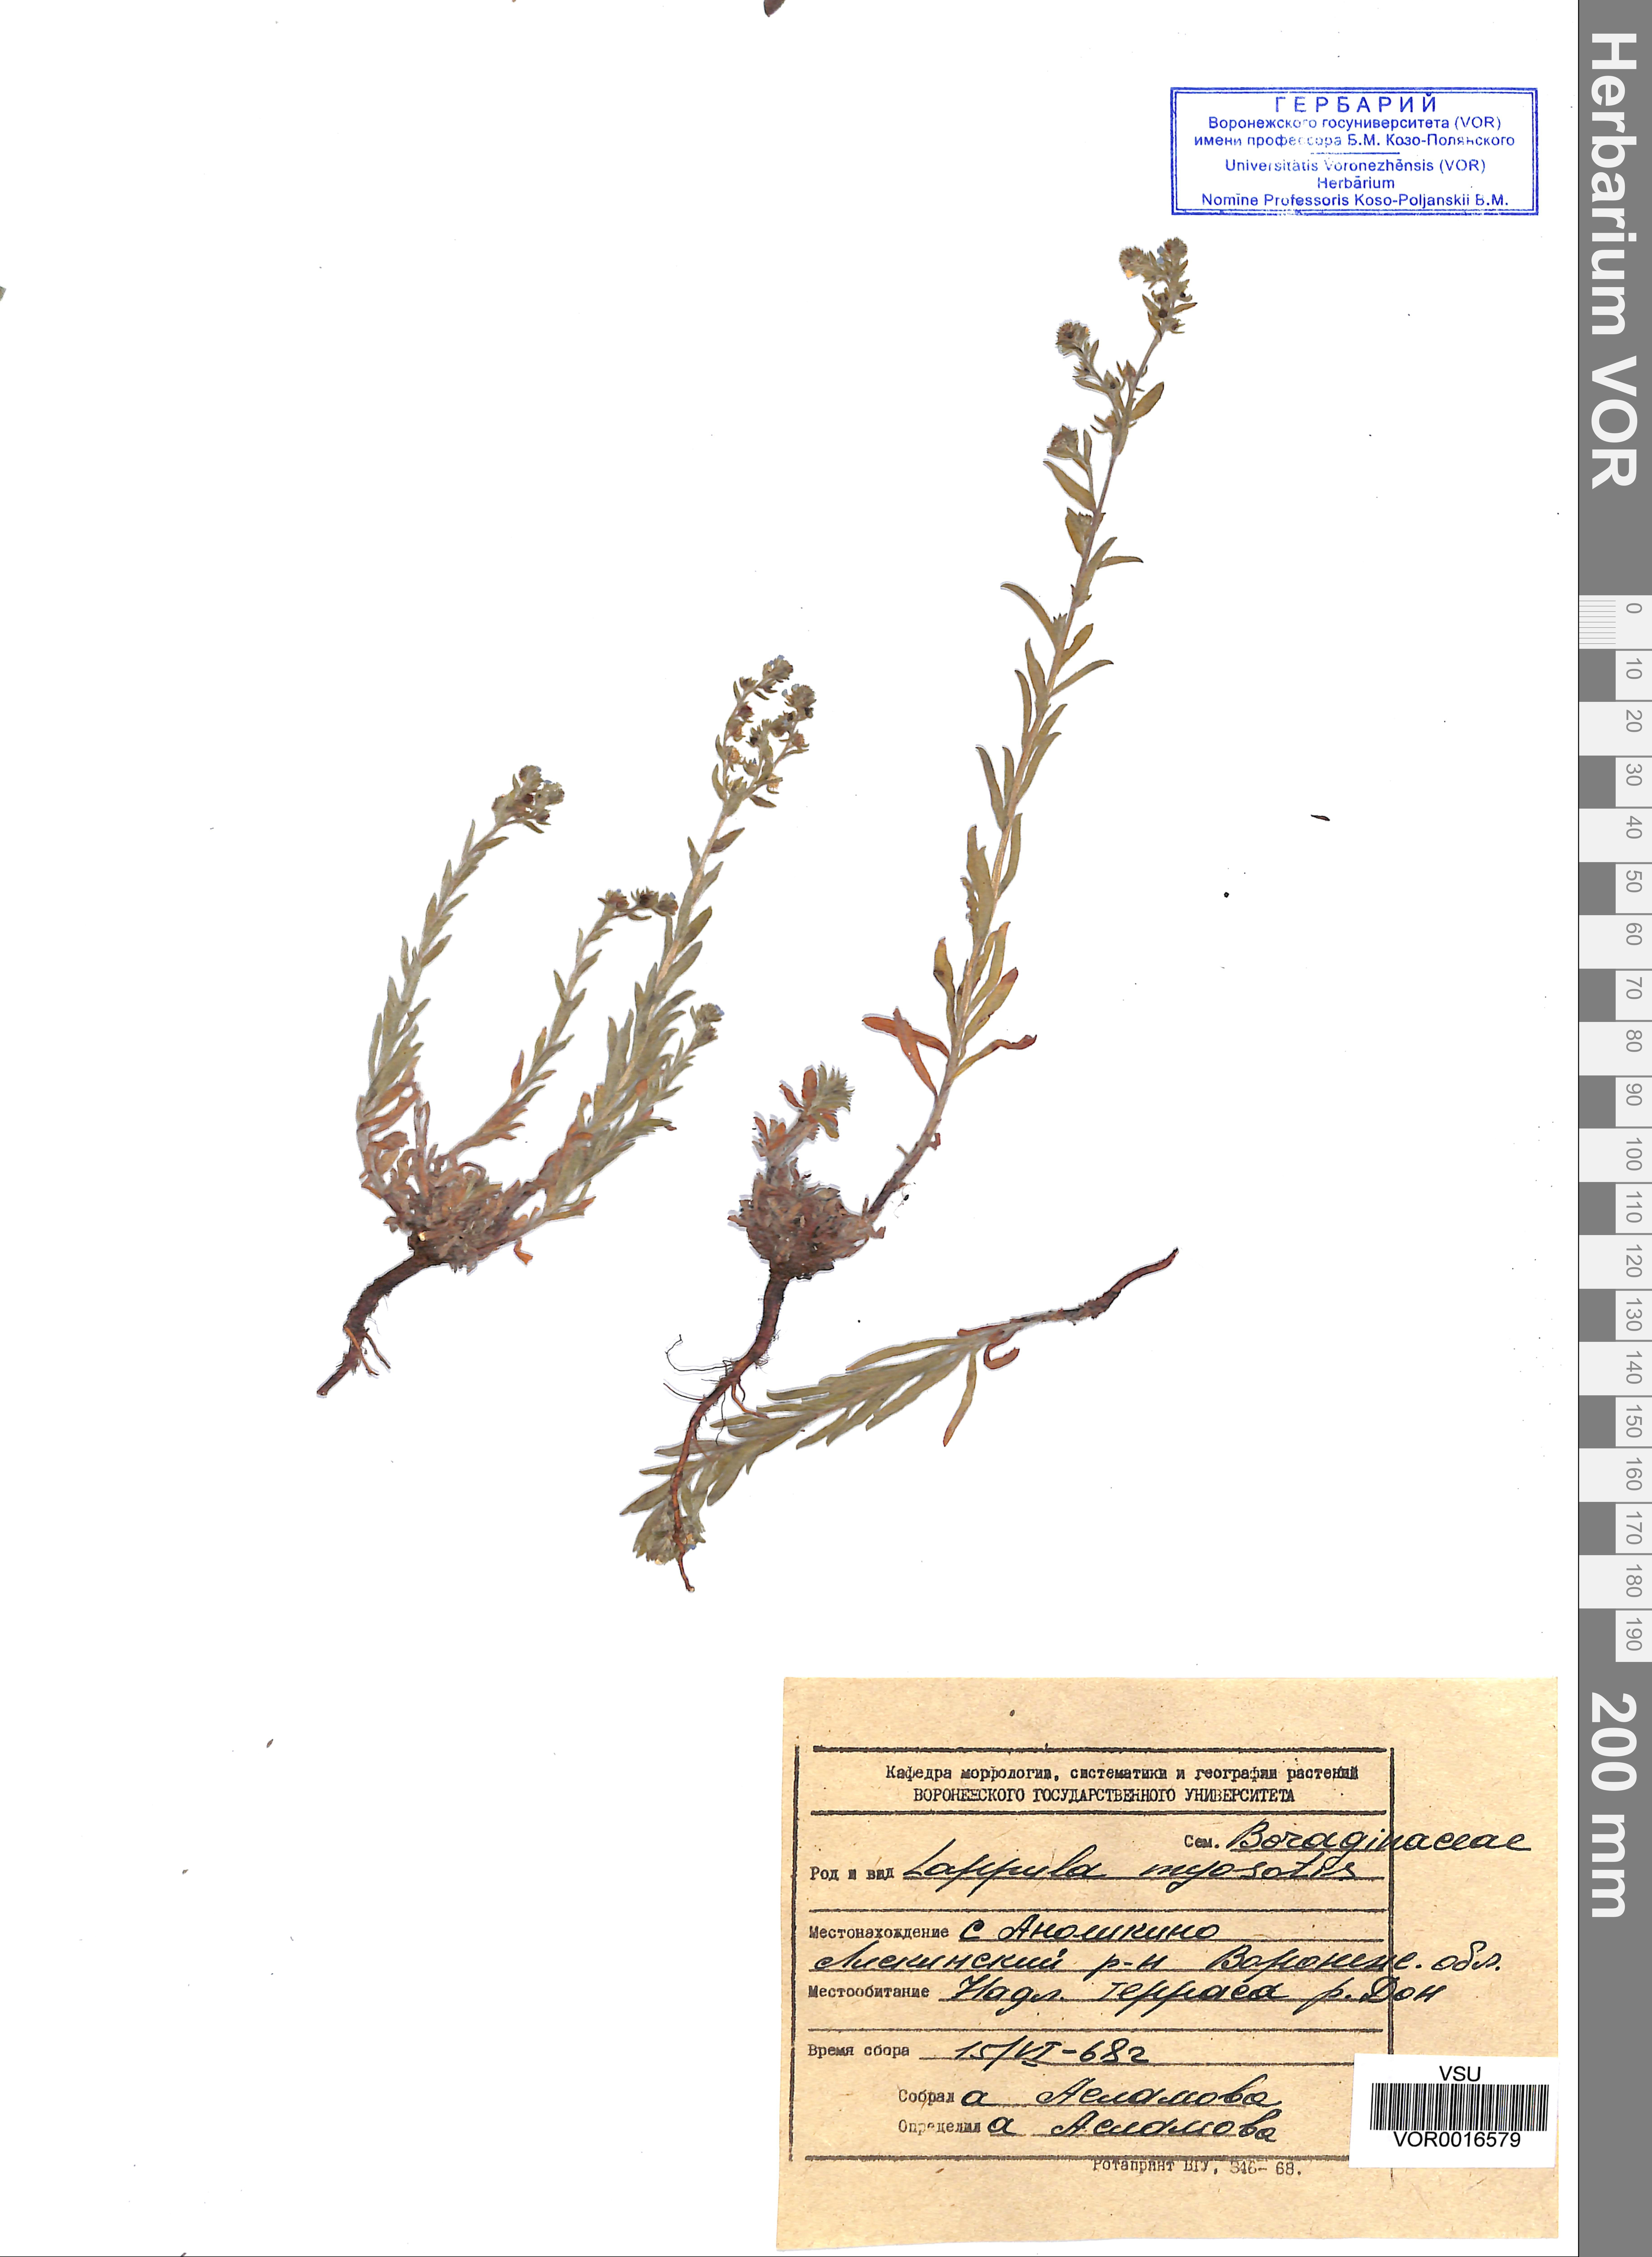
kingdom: Plantae
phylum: Tracheophyta
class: Magnoliopsida
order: Boraginales
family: Boraginaceae
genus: Lappula
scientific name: Lappula squarrosa
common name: European stickseed
